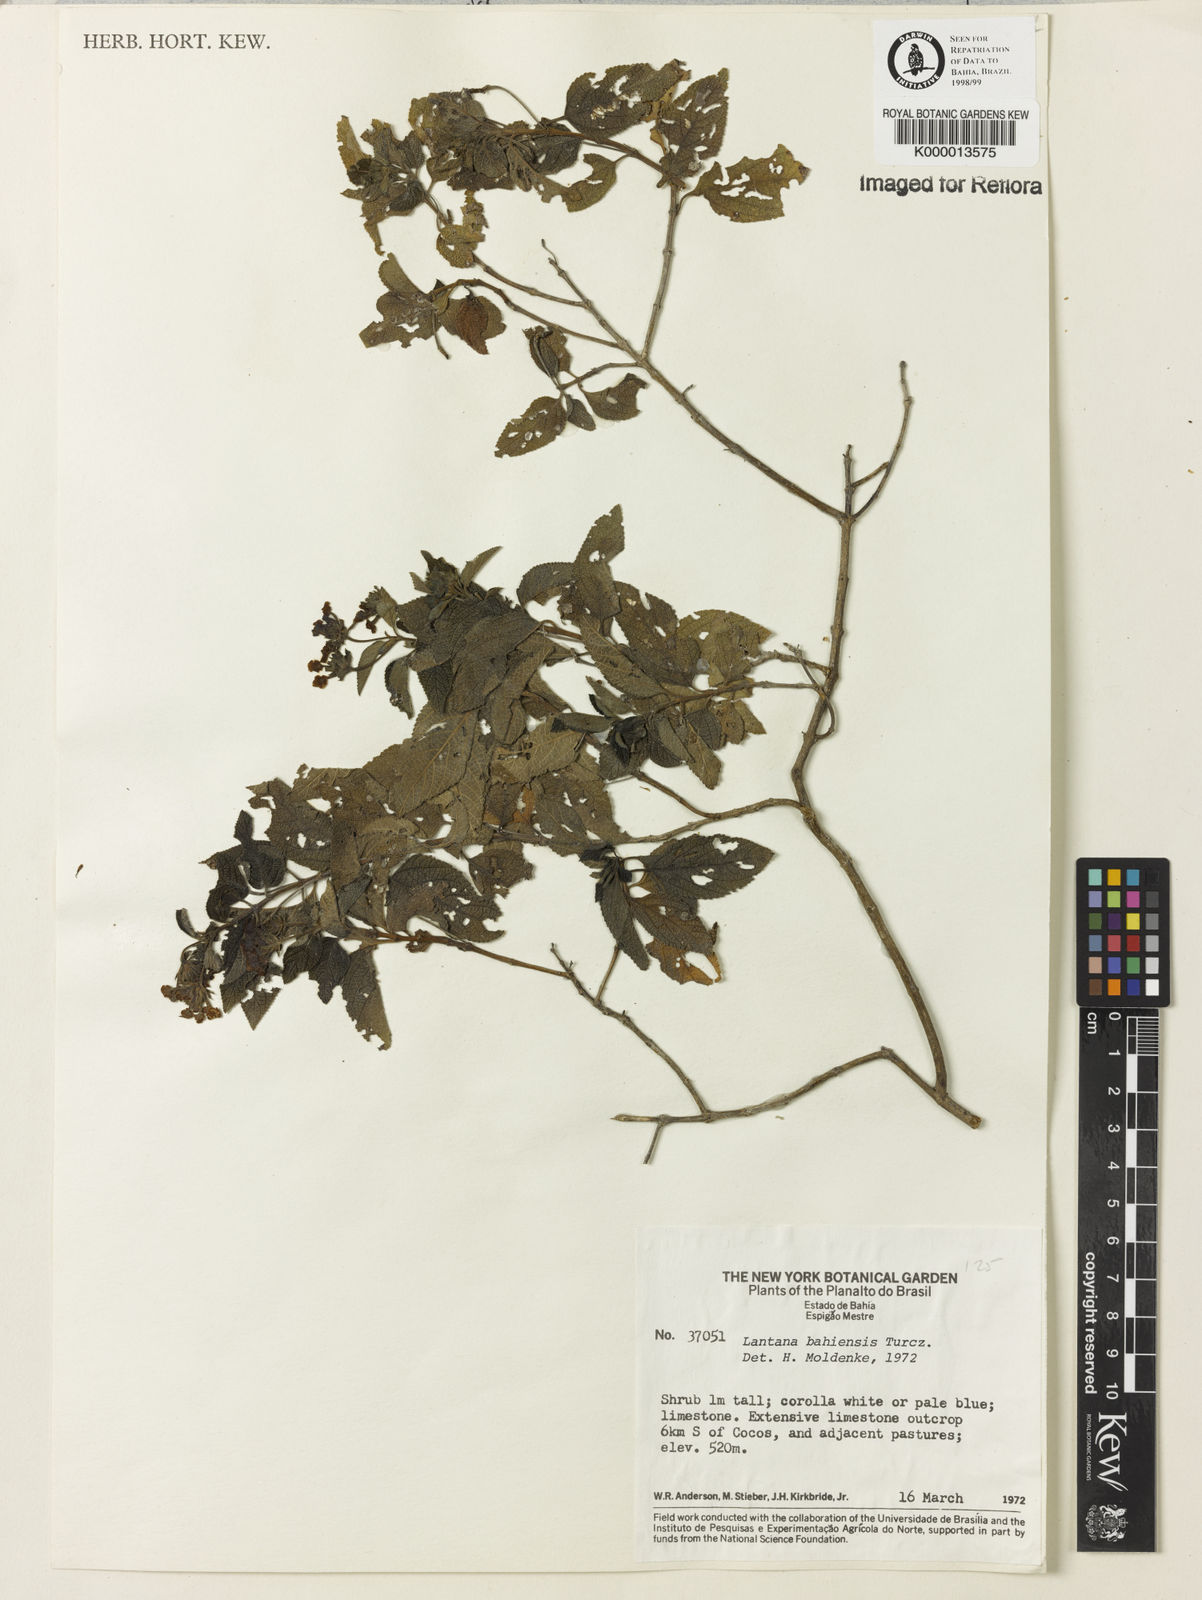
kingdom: Plantae
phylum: Tracheophyta
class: Magnoliopsida
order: Lamiales
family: Verbenaceae
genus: Lantana
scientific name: Lantana mutabilis
